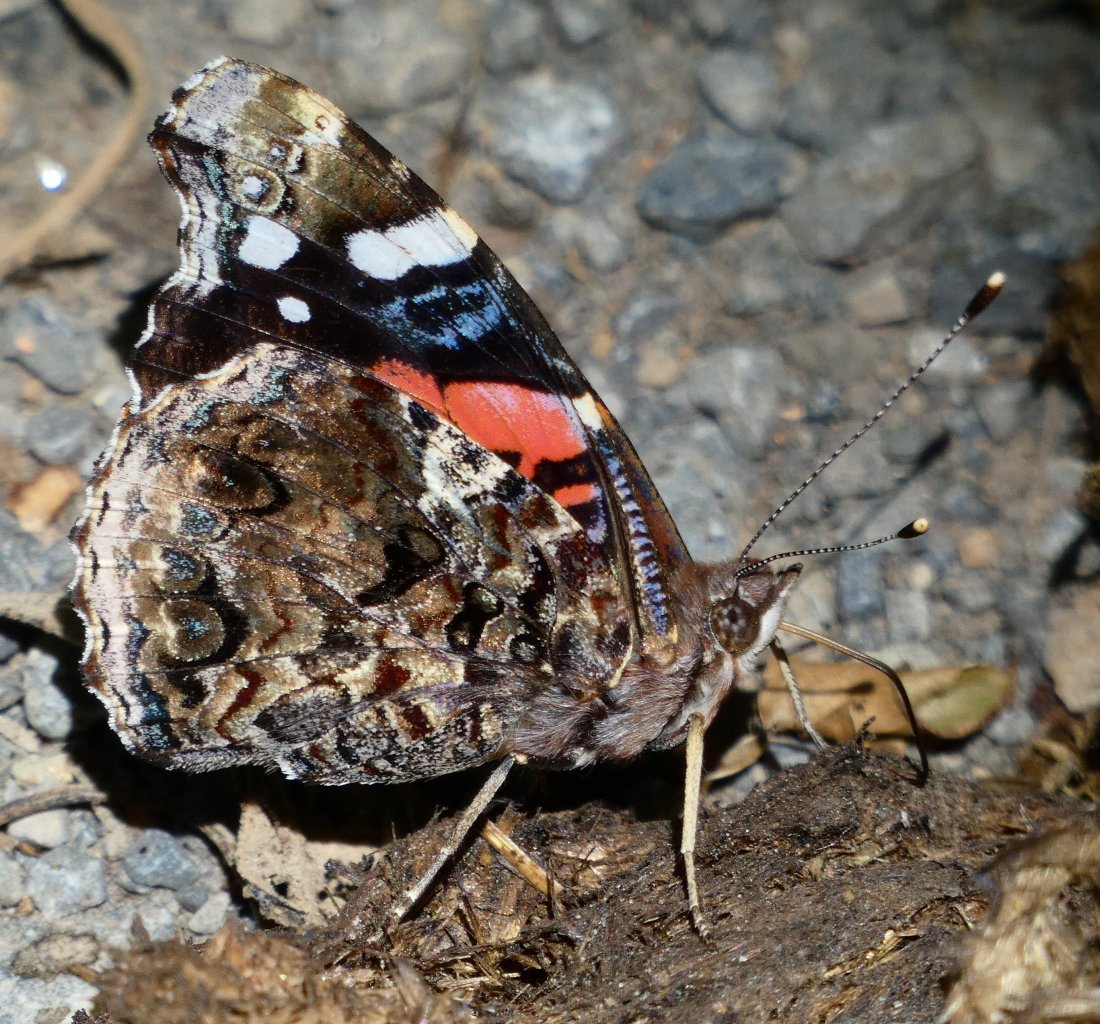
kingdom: Animalia
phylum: Arthropoda
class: Insecta
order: Lepidoptera
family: Nymphalidae
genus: Vanessa
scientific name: Vanessa atalanta
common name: Red Admiral
